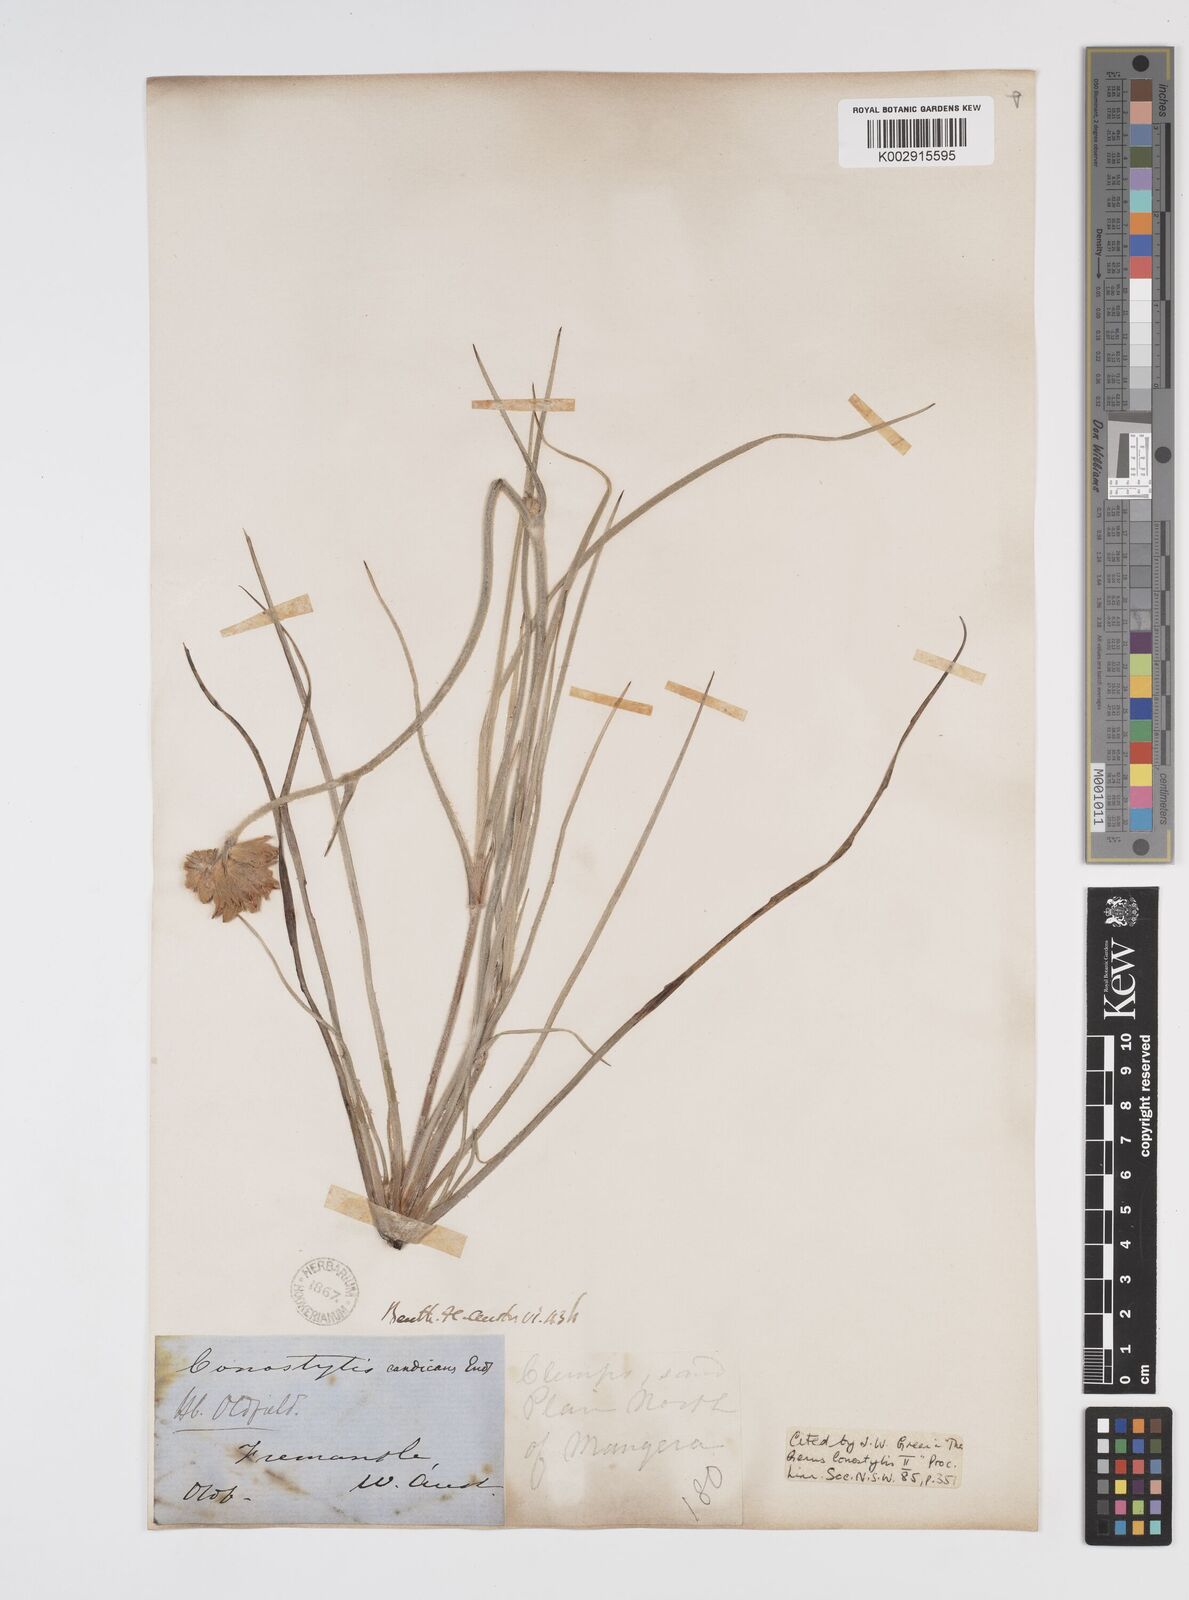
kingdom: Plantae
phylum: Tracheophyta
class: Liliopsida
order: Commelinales
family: Haemodoraceae
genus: Conostylis
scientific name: Conostylis candicans
